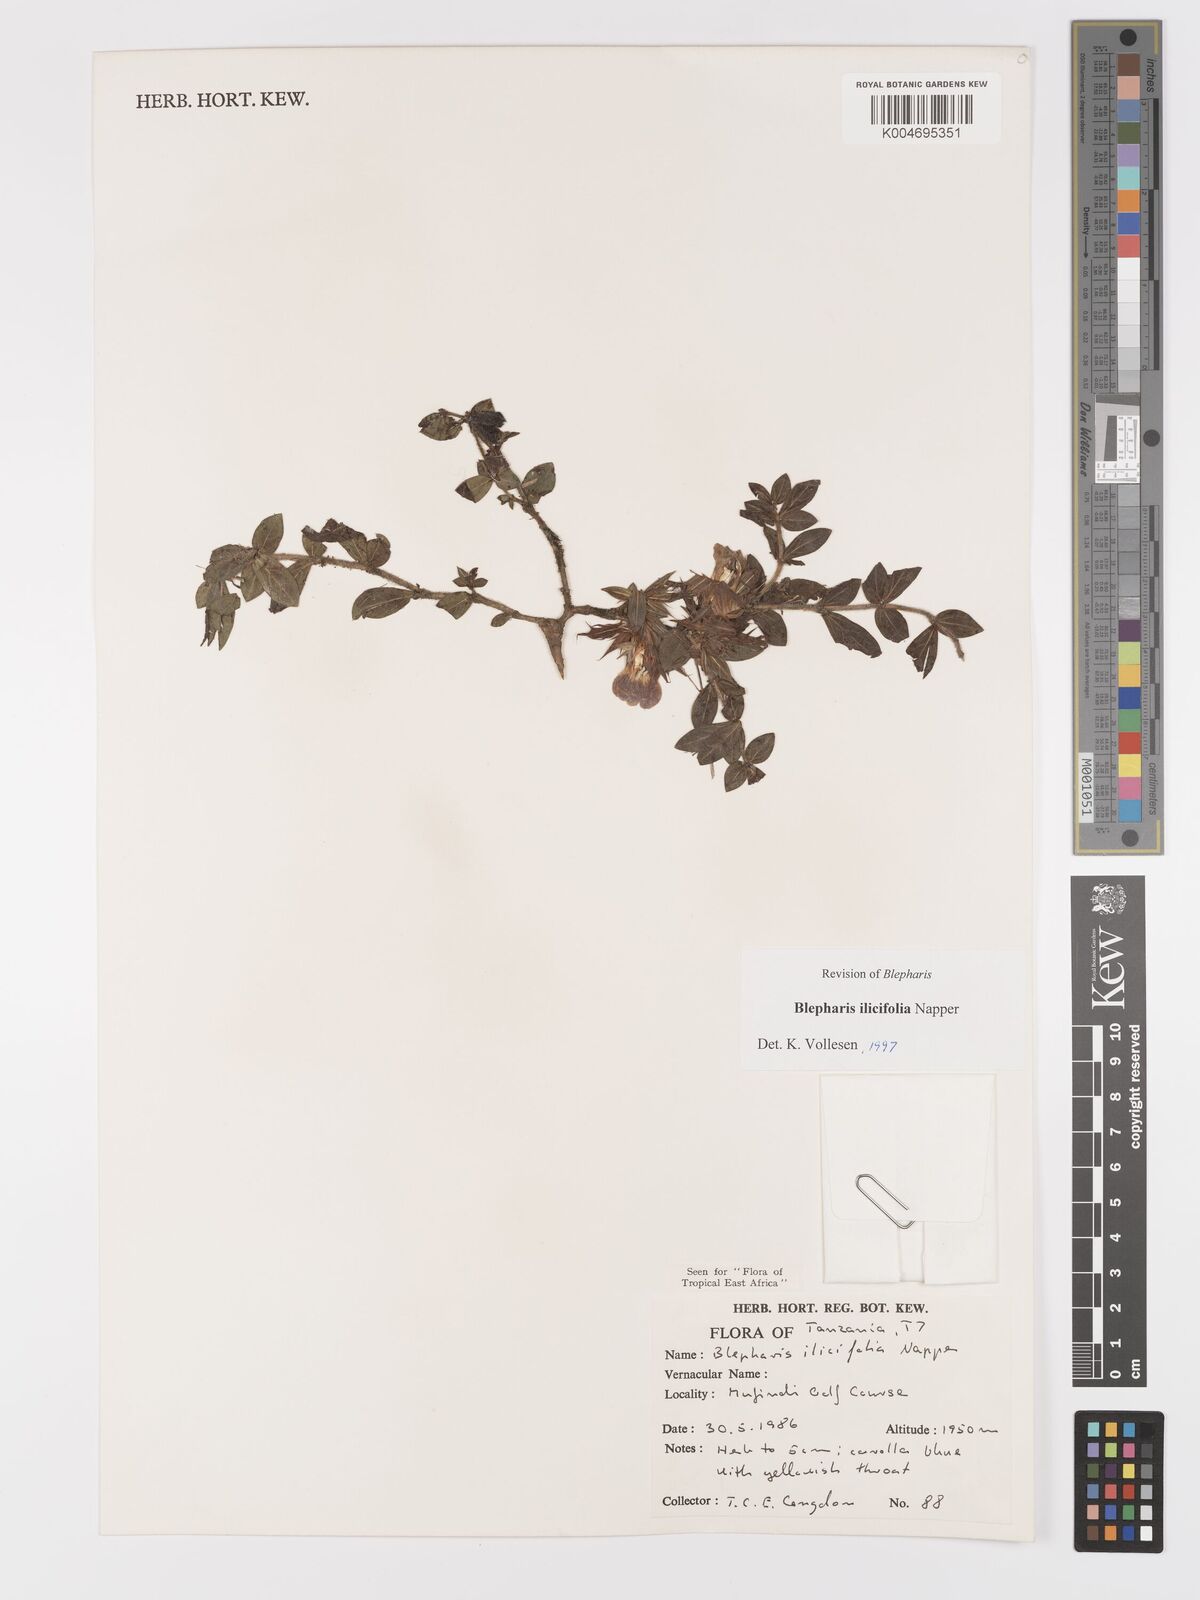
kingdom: Plantae
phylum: Tracheophyta
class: Magnoliopsida
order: Lamiales
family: Acanthaceae
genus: Blepharis
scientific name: Blepharis ilicifolia
